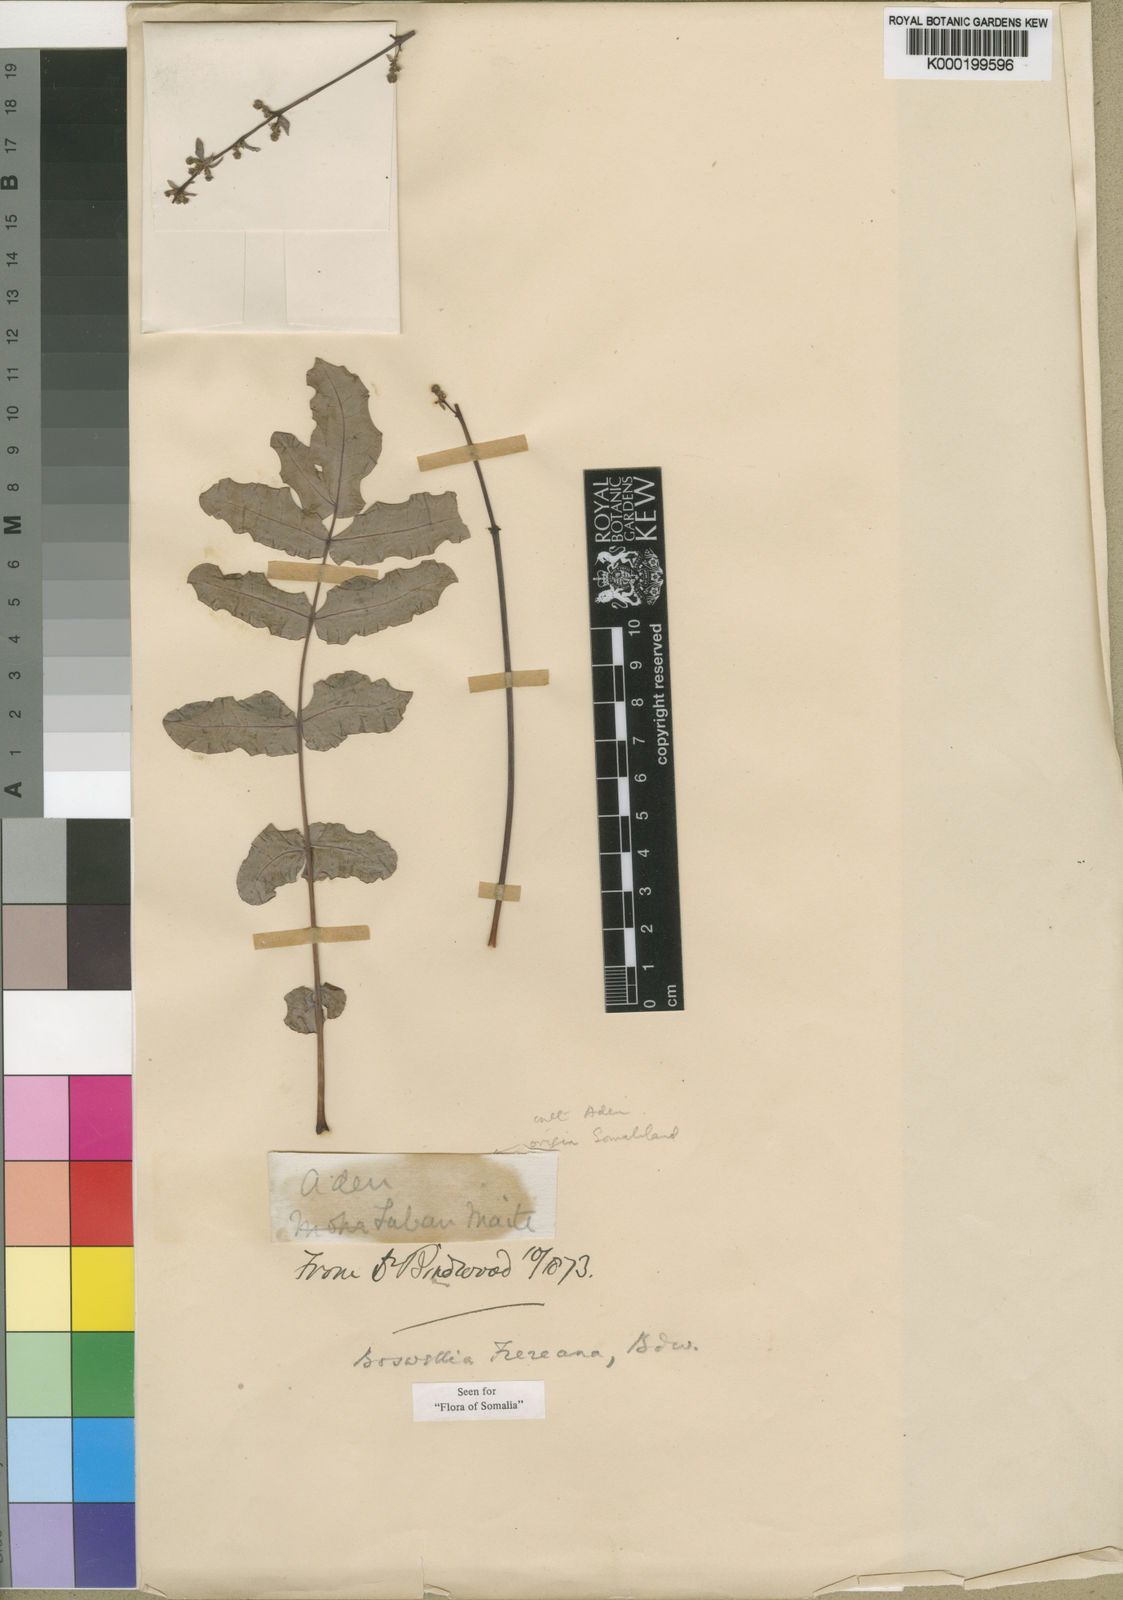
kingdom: Plantae
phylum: Tracheophyta
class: Magnoliopsida
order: Sapindales
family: Burseraceae
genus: Boswellia
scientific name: Boswellia frereana
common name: African elemi
